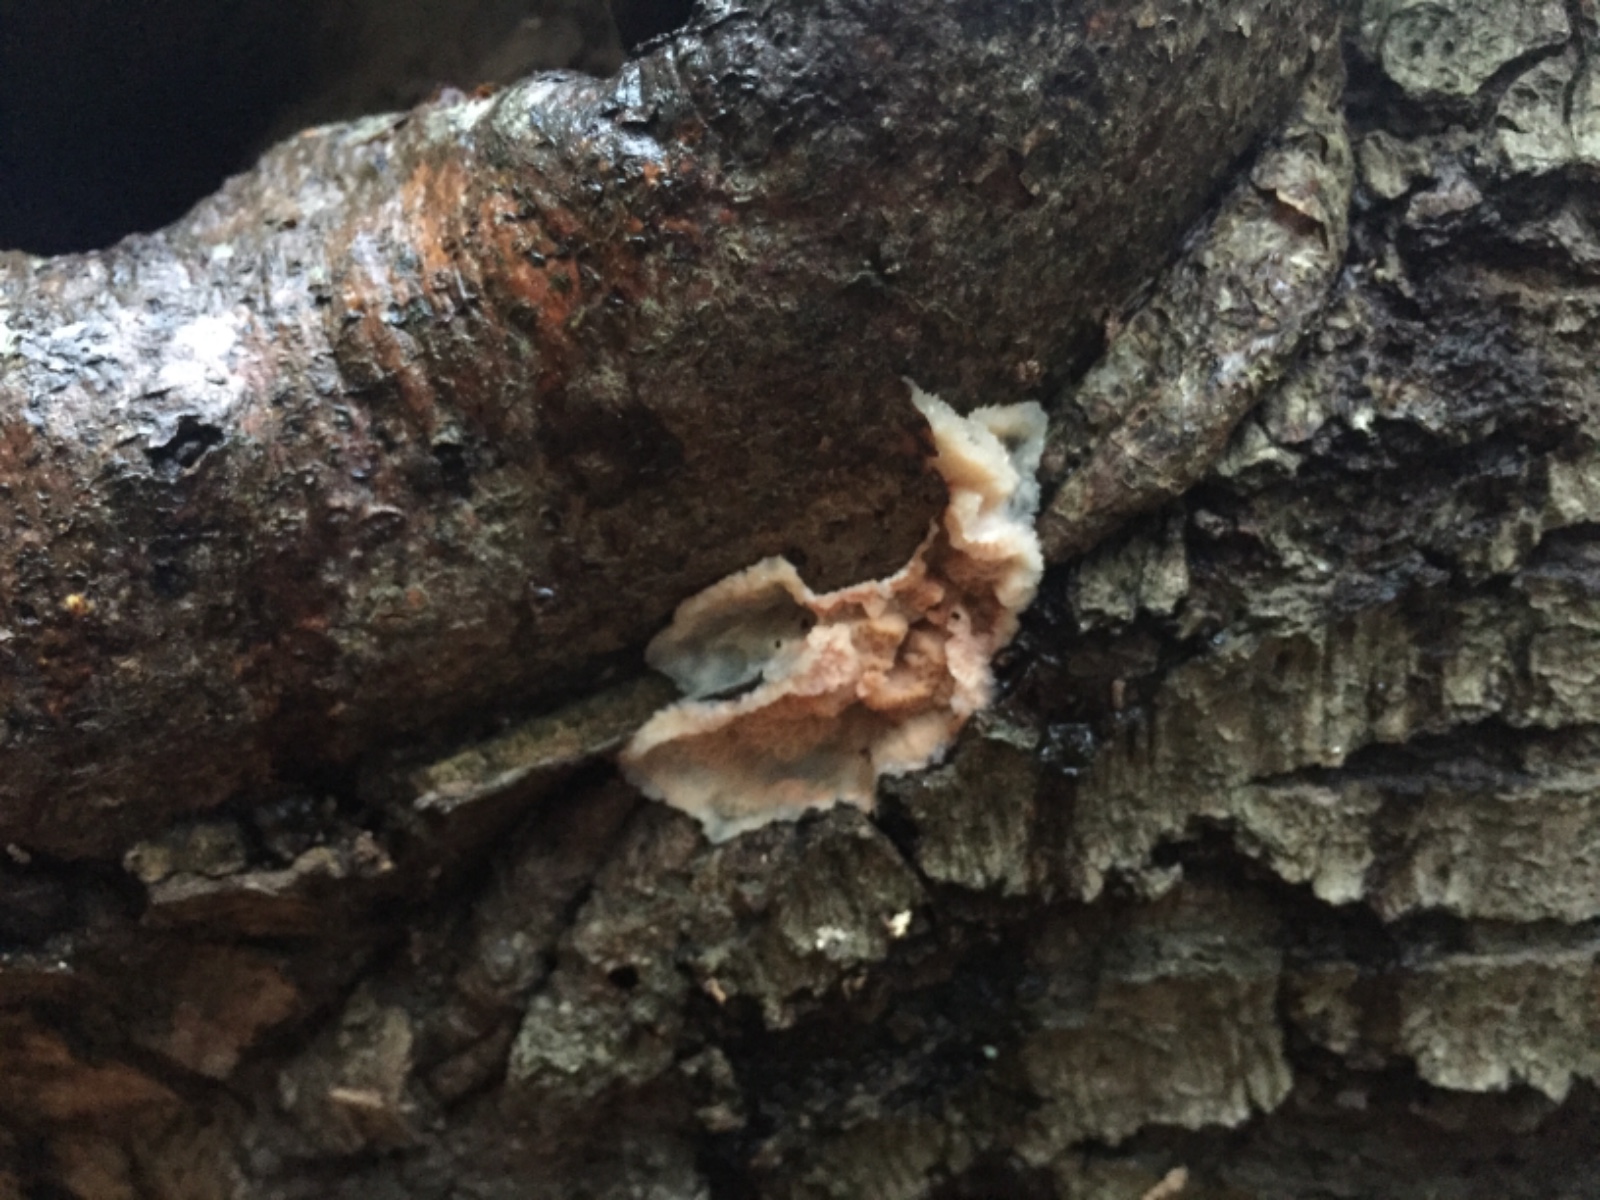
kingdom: Fungi
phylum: Basidiomycota
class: Agaricomycetes
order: Polyporales
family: Meruliaceae
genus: Phlebia
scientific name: Phlebia tremellosa
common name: bævrende åresvamp
